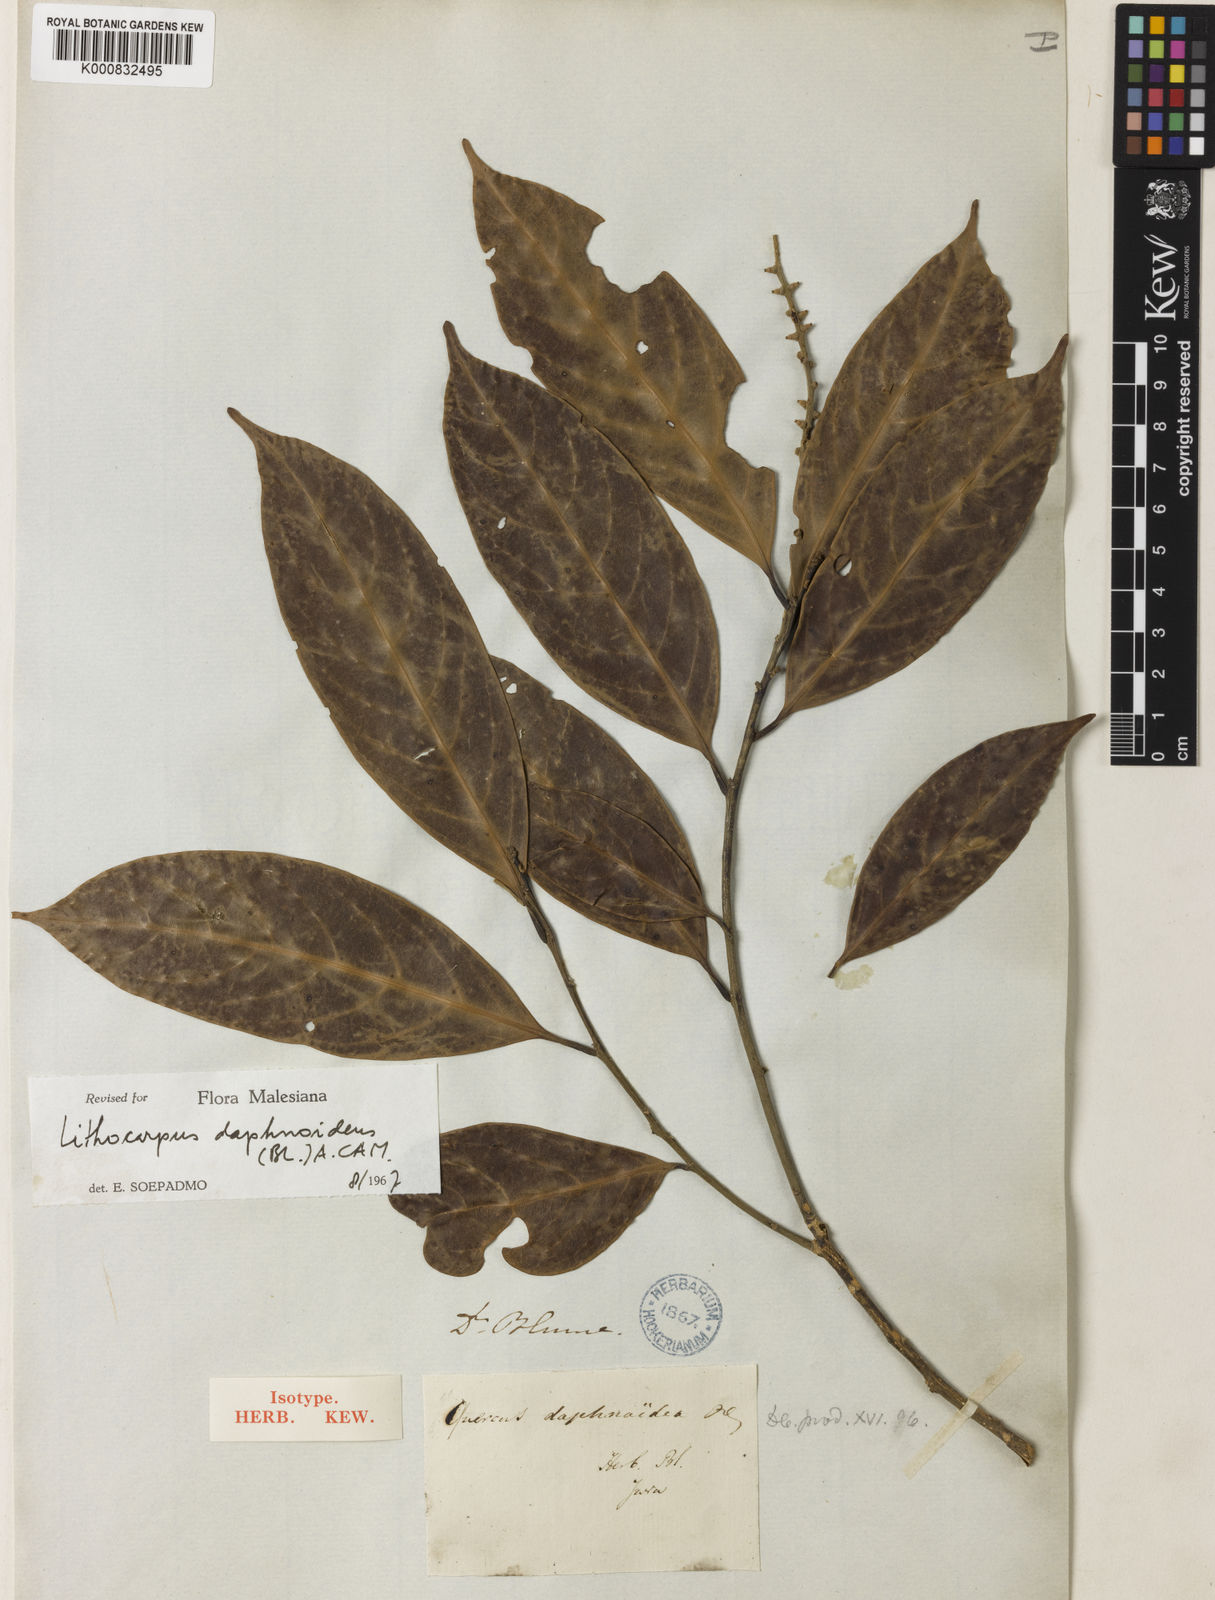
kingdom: Plantae
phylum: Tracheophyta
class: Magnoliopsida
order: Fagales
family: Fagaceae
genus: Lithocarpus
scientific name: Lithocarpus daphnoideus
